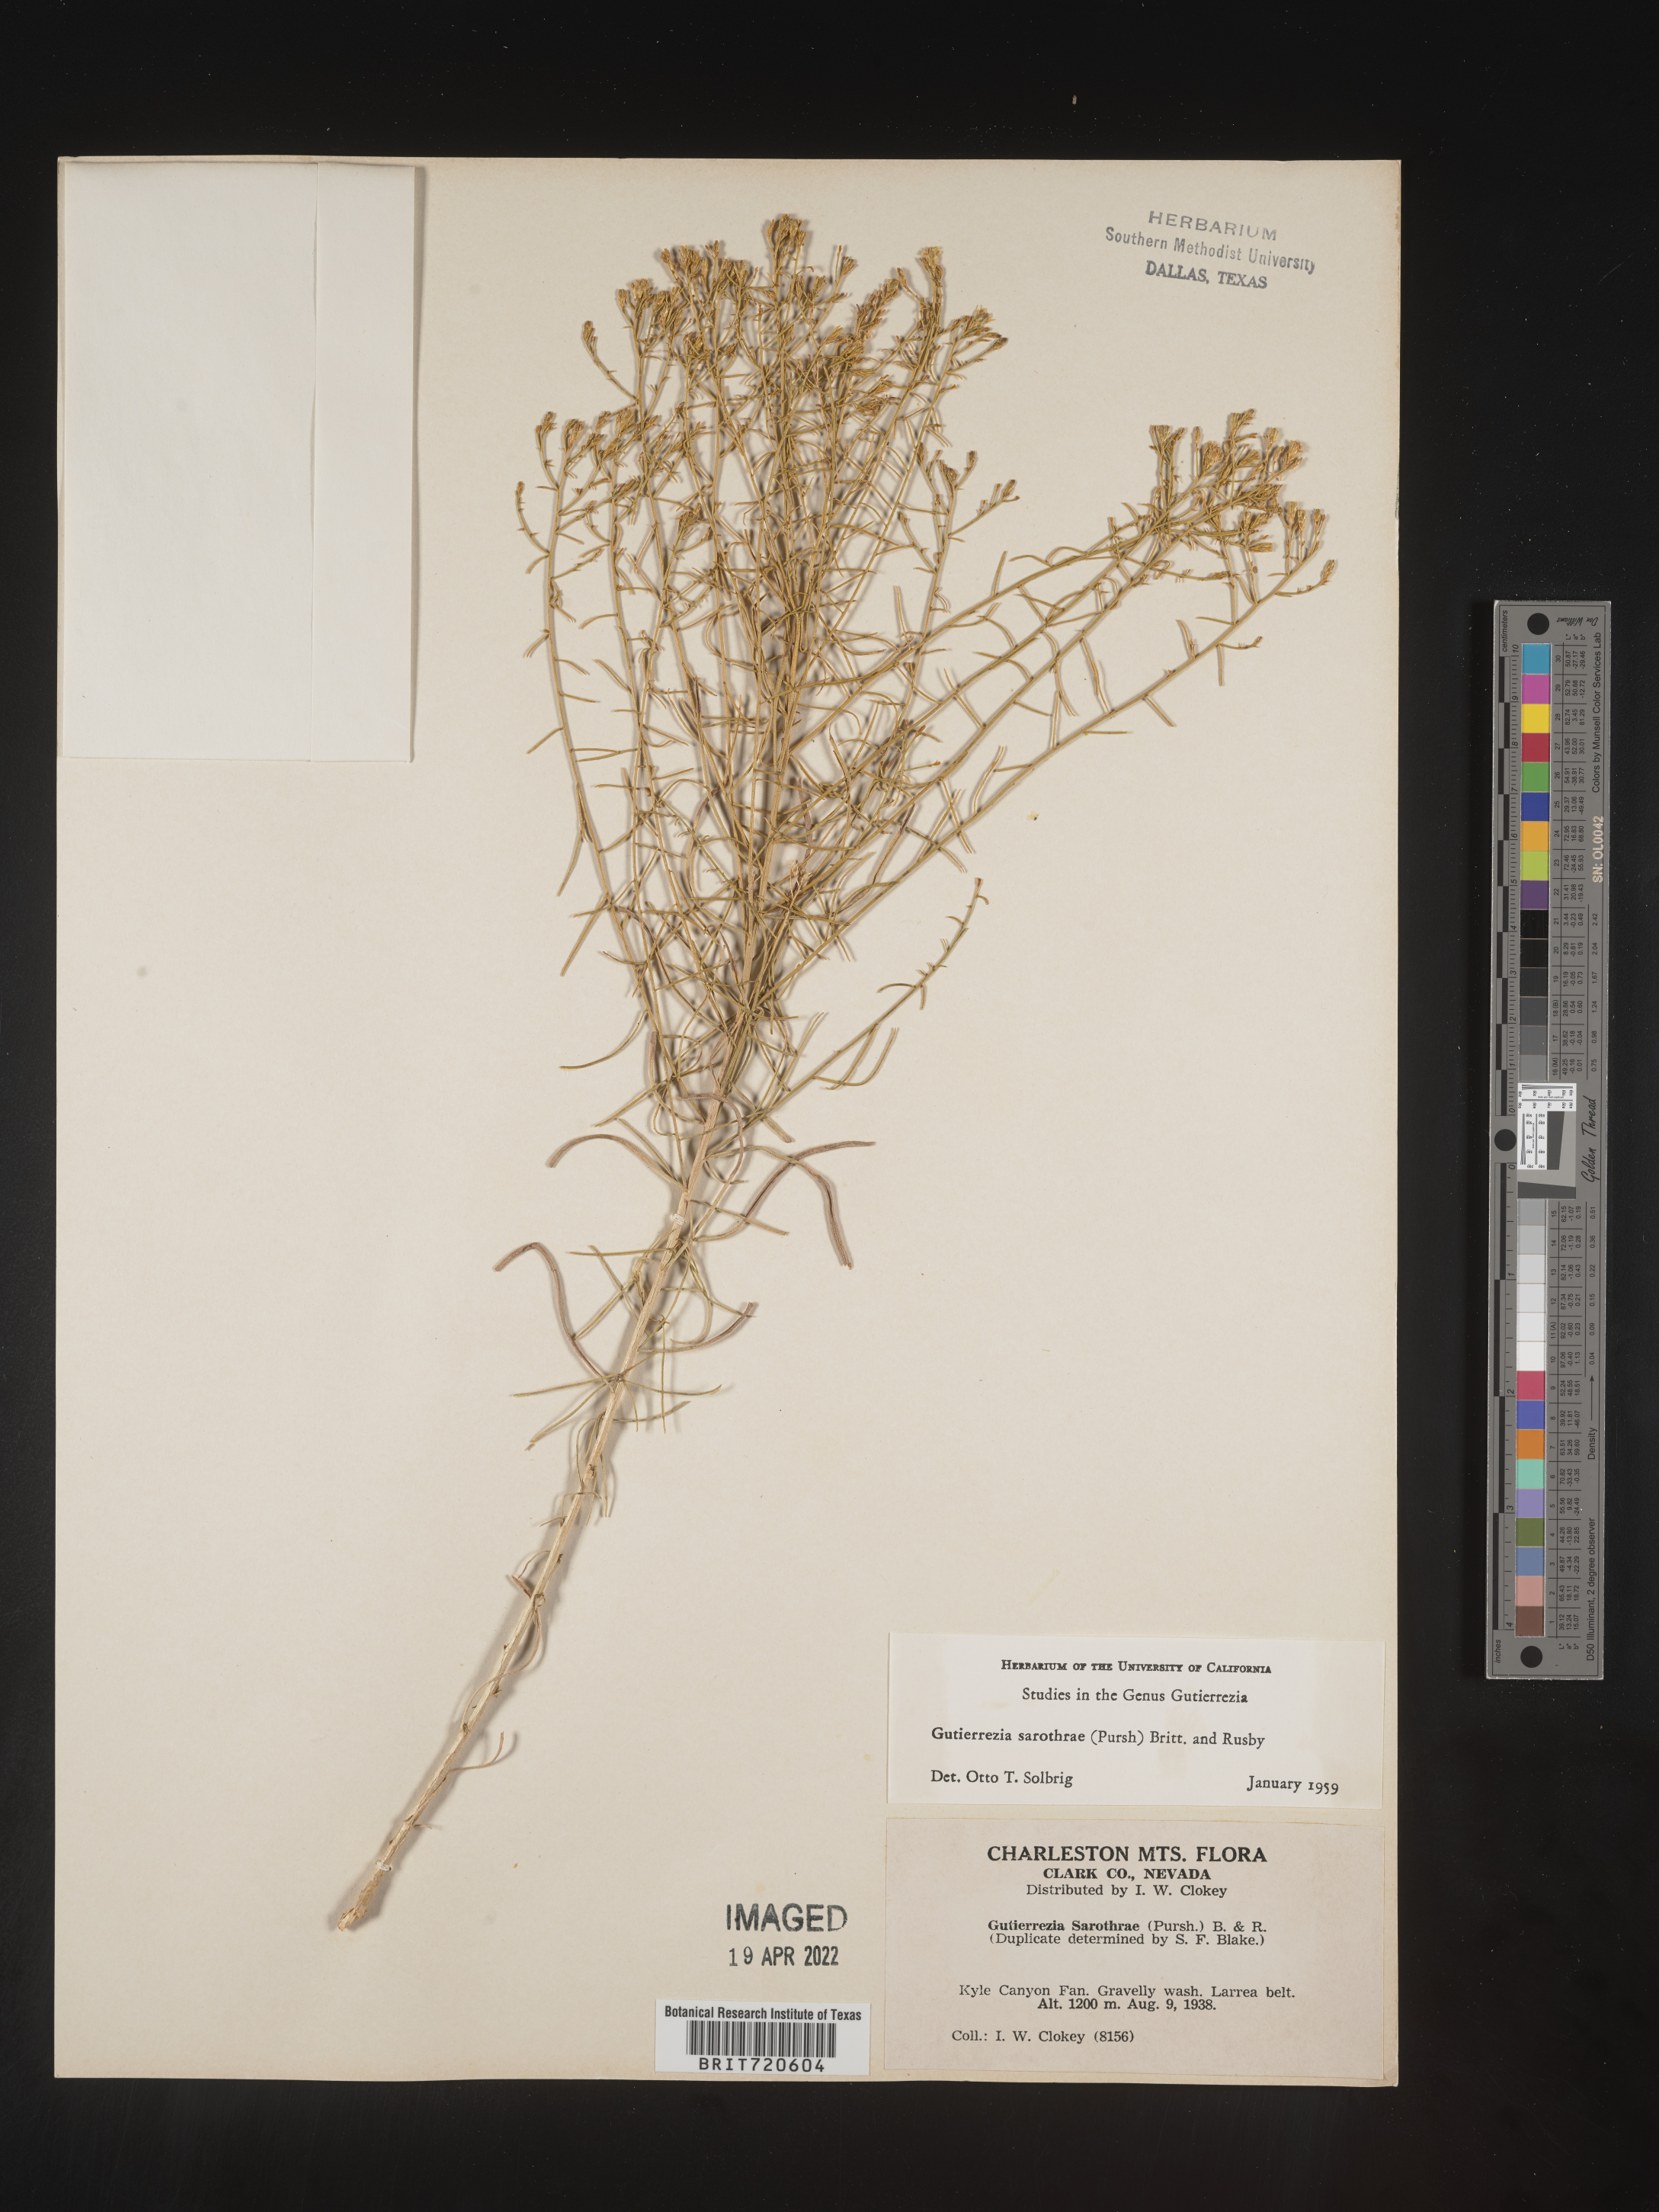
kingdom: Plantae
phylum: Tracheophyta
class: Magnoliopsida
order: Asterales
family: Asteraceae
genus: Gutierrezia
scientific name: Gutierrezia sarothrae
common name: Broom snakeweed
